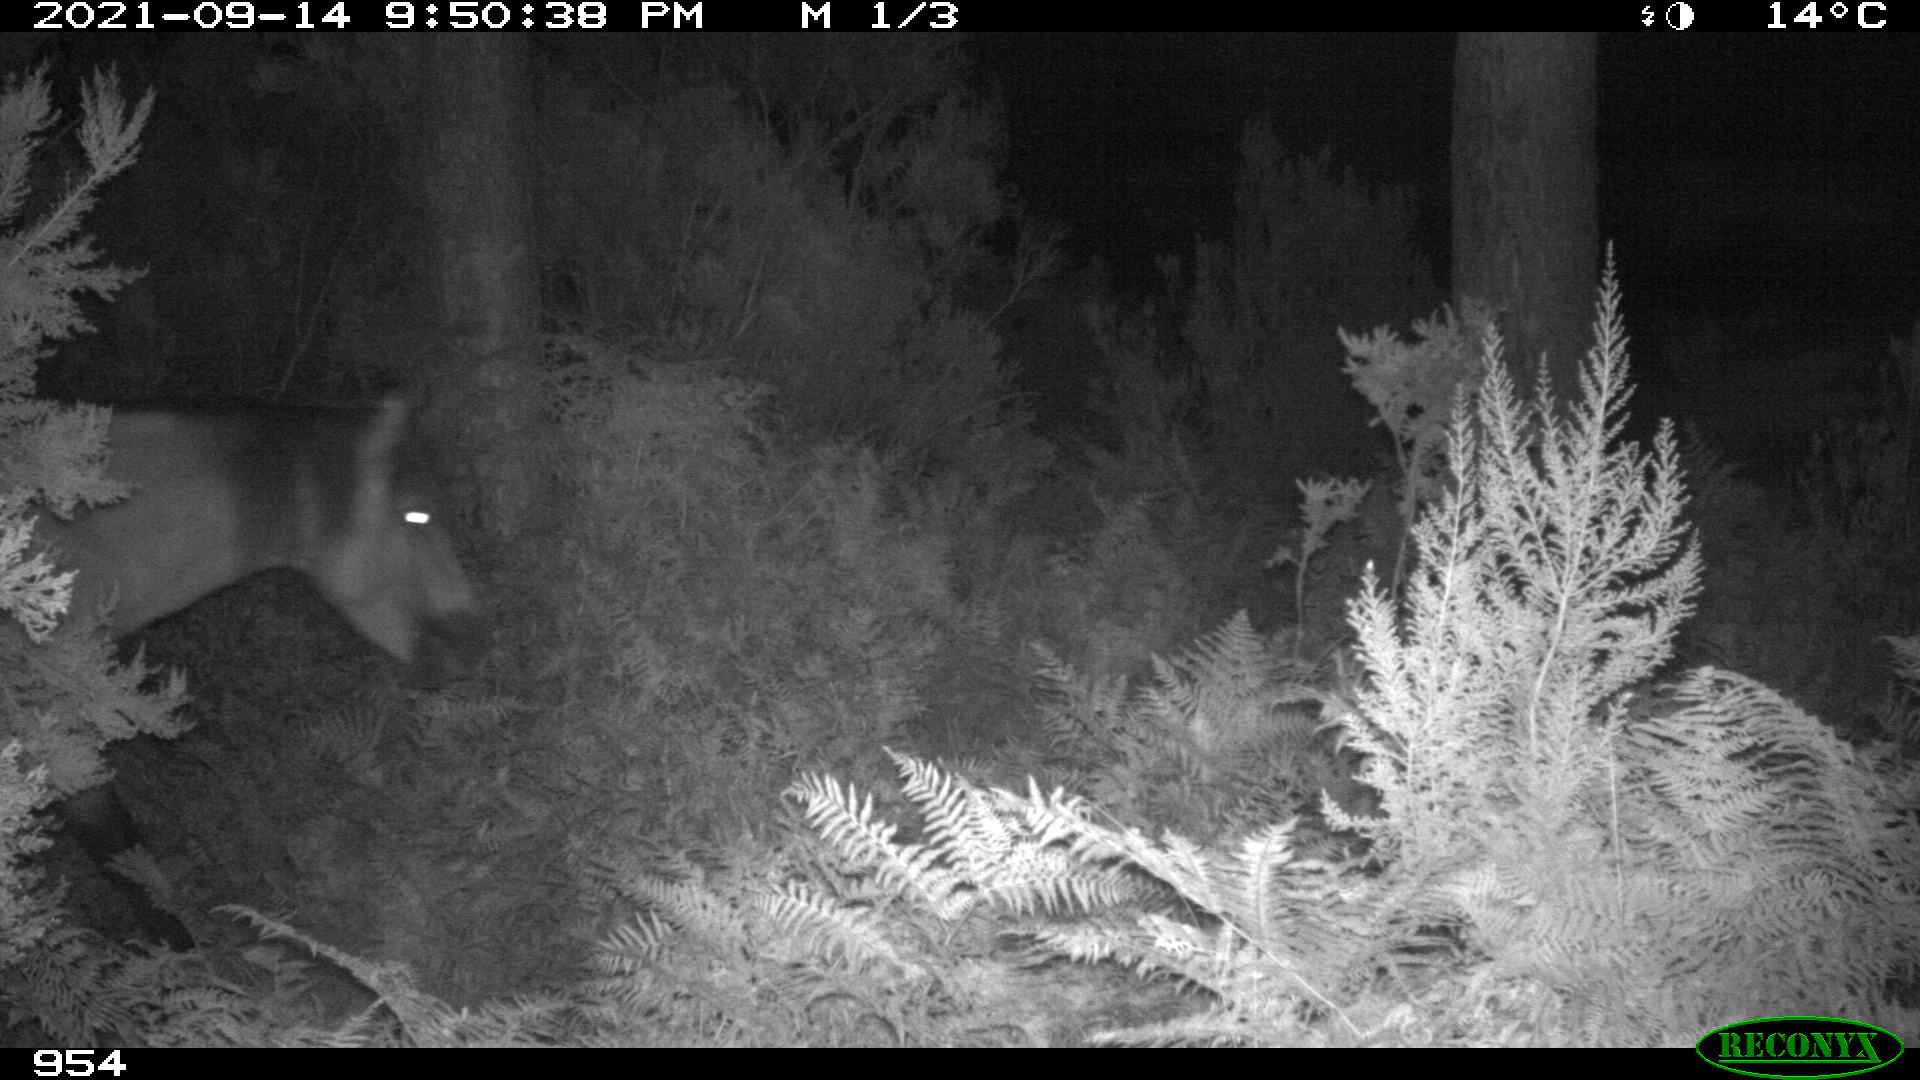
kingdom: Animalia
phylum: Chordata
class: Mammalia
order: Perissodactyla
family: Equidae
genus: Equus
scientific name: Equus caballus
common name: Horse
